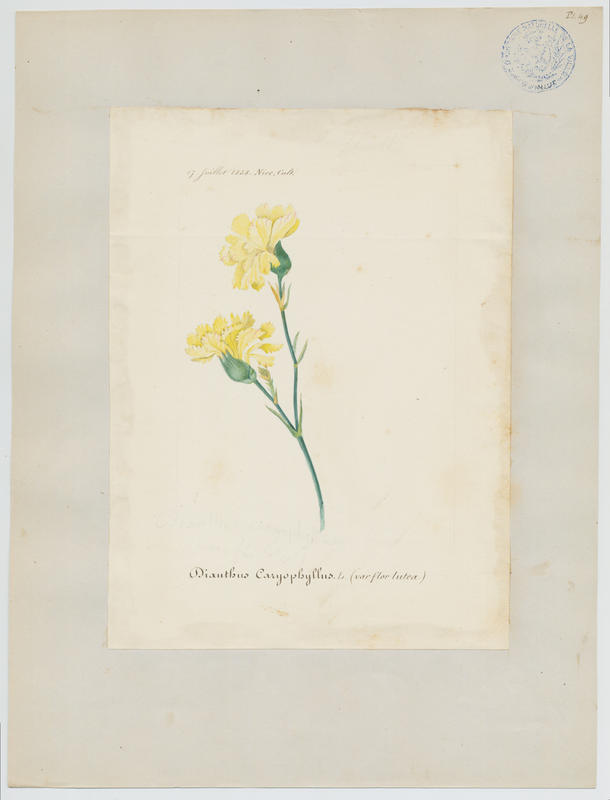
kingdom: Plantae
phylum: Tracheophyta
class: Magnoliopsida
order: Caryophyllales
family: Caryophyllaceae
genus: Dianthus
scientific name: Dianthus caryophyllus
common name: Clove pink
